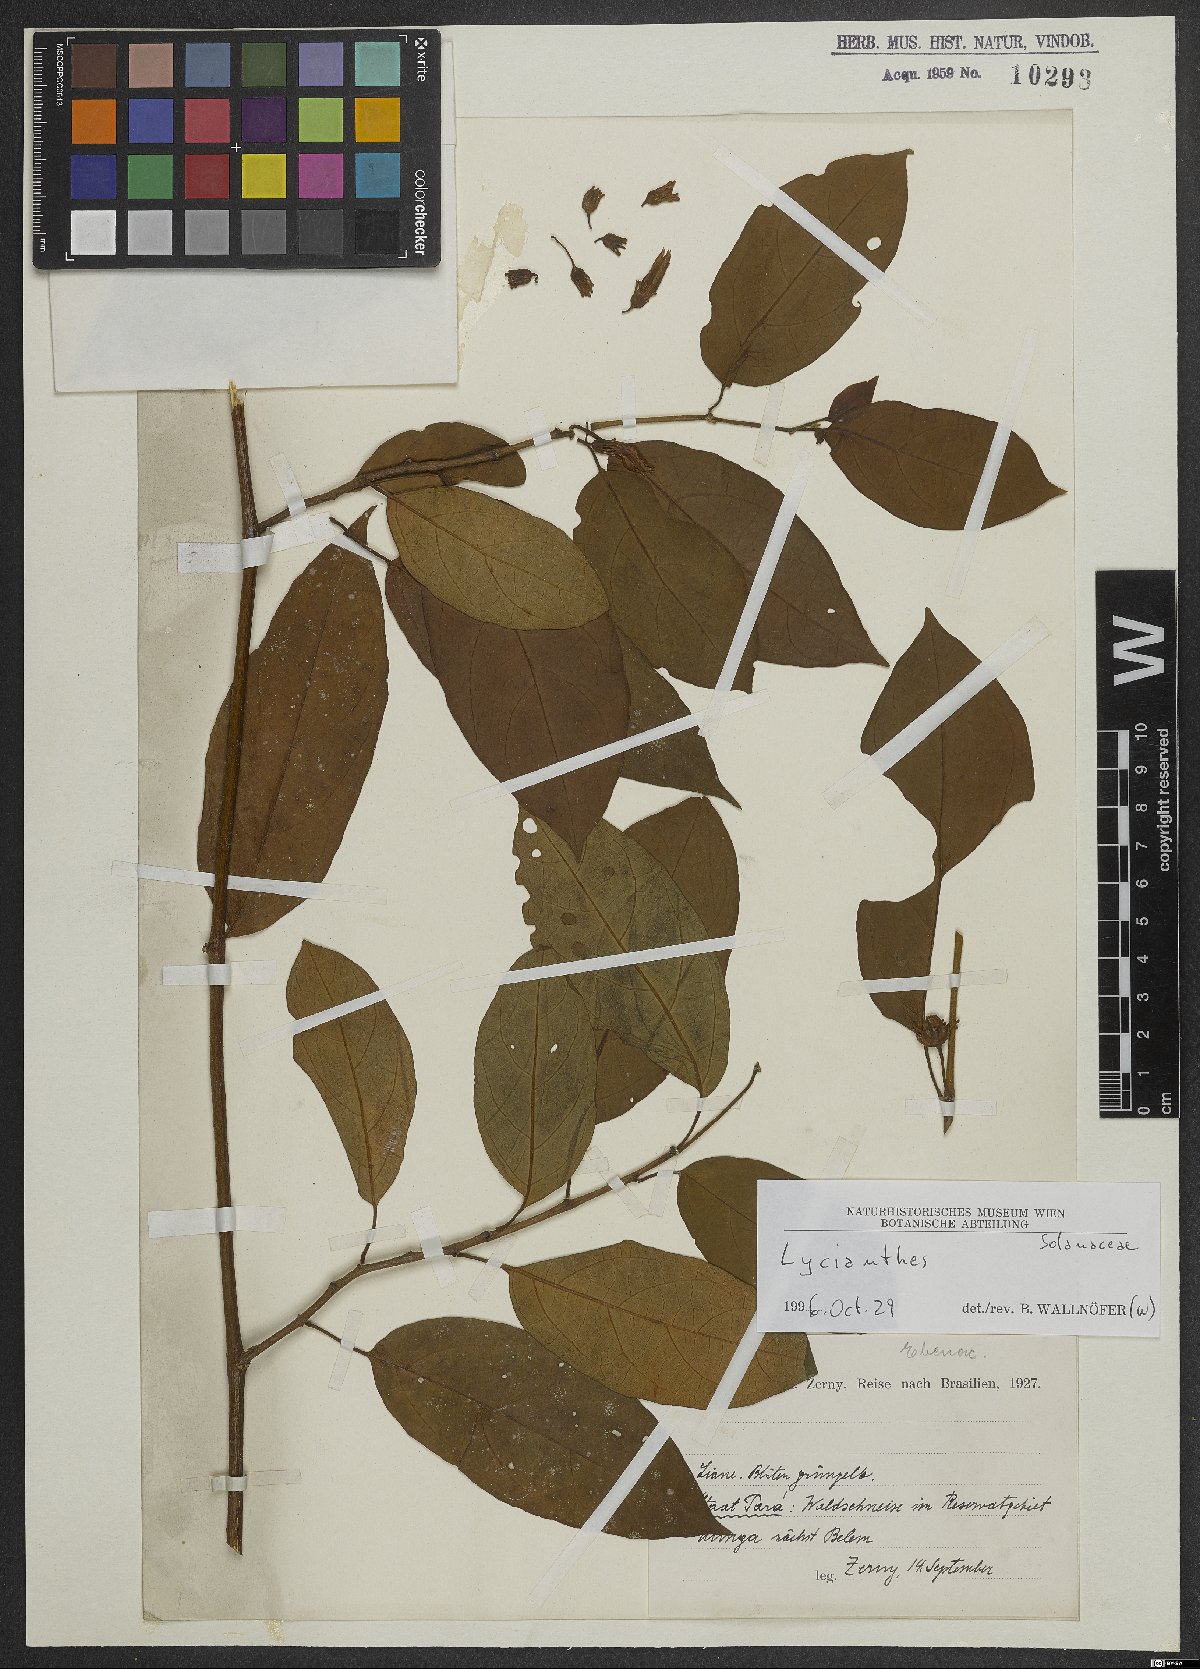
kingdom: Plantae
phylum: Tracheophyta
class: Magnoliopsida
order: Solanales
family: Solanaceae
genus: Lycianthes
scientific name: Lycianthes pauciflora
